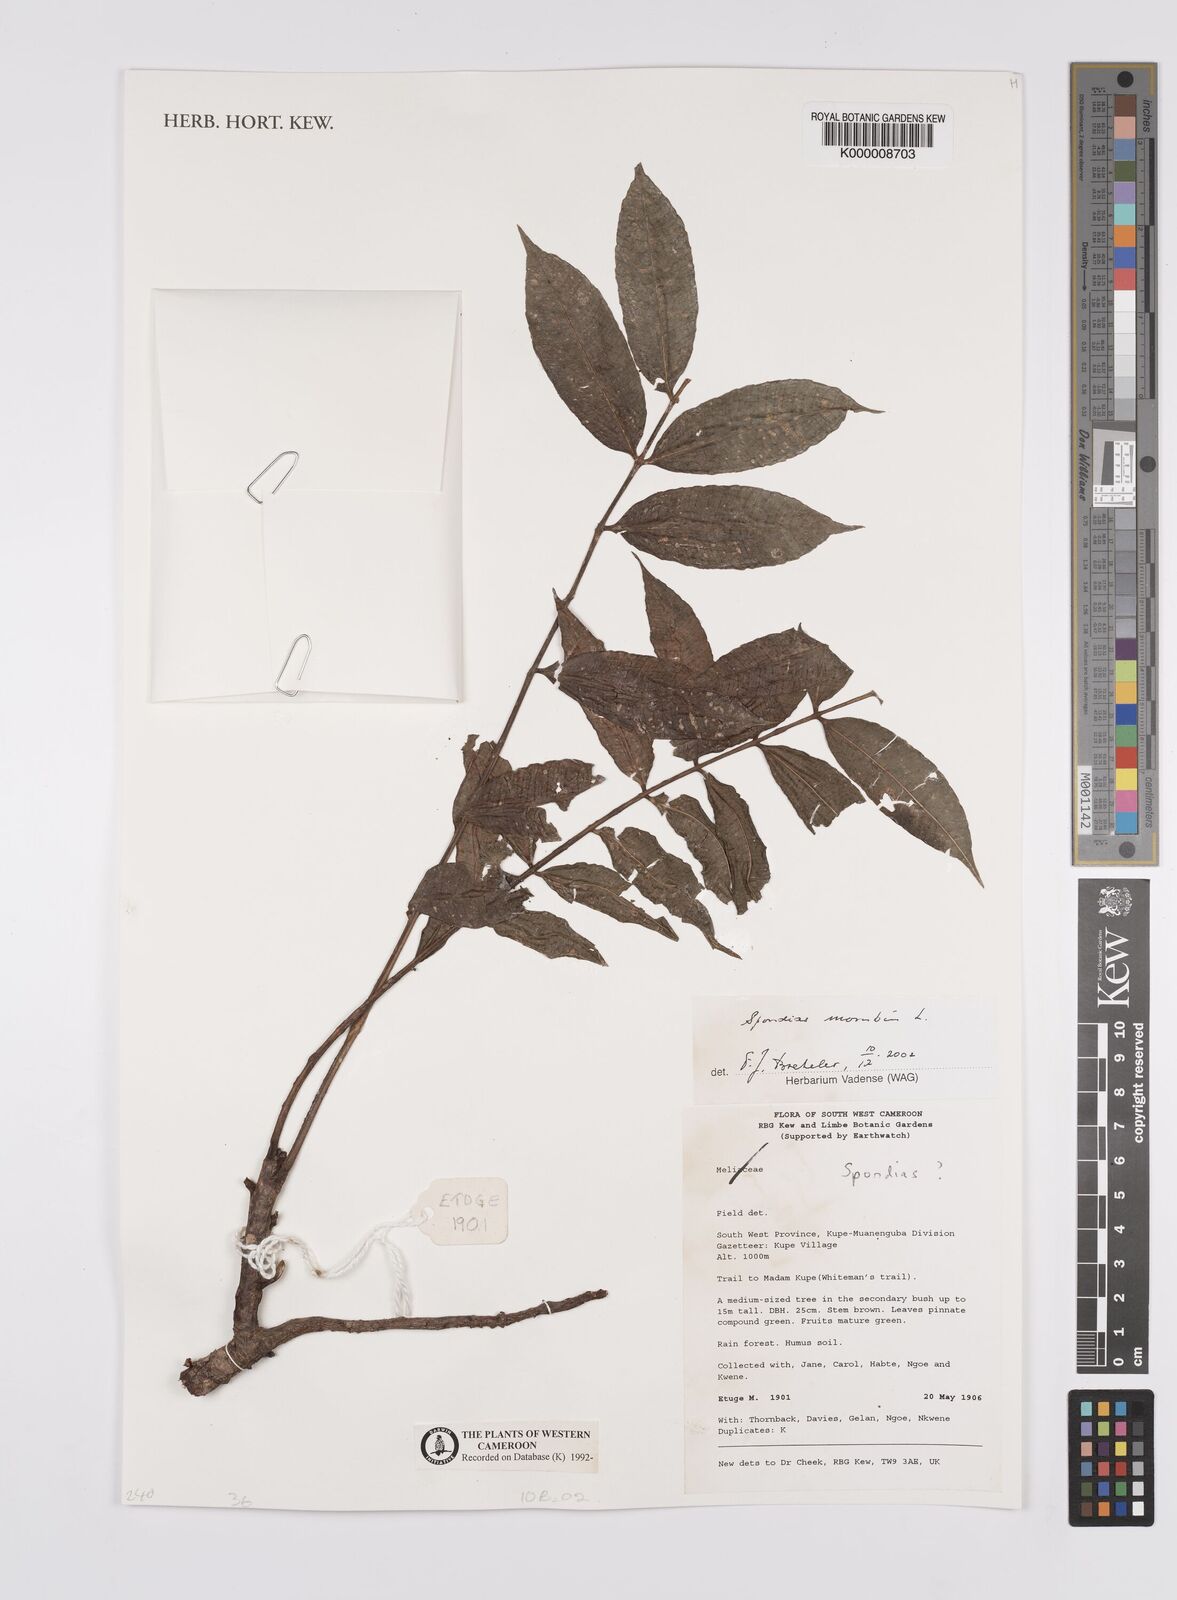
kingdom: Plantae
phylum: Tracheophyta
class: Magnoliopsida
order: Sapindales
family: Anacardiaceae
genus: Spondias
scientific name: Spondias mombin
